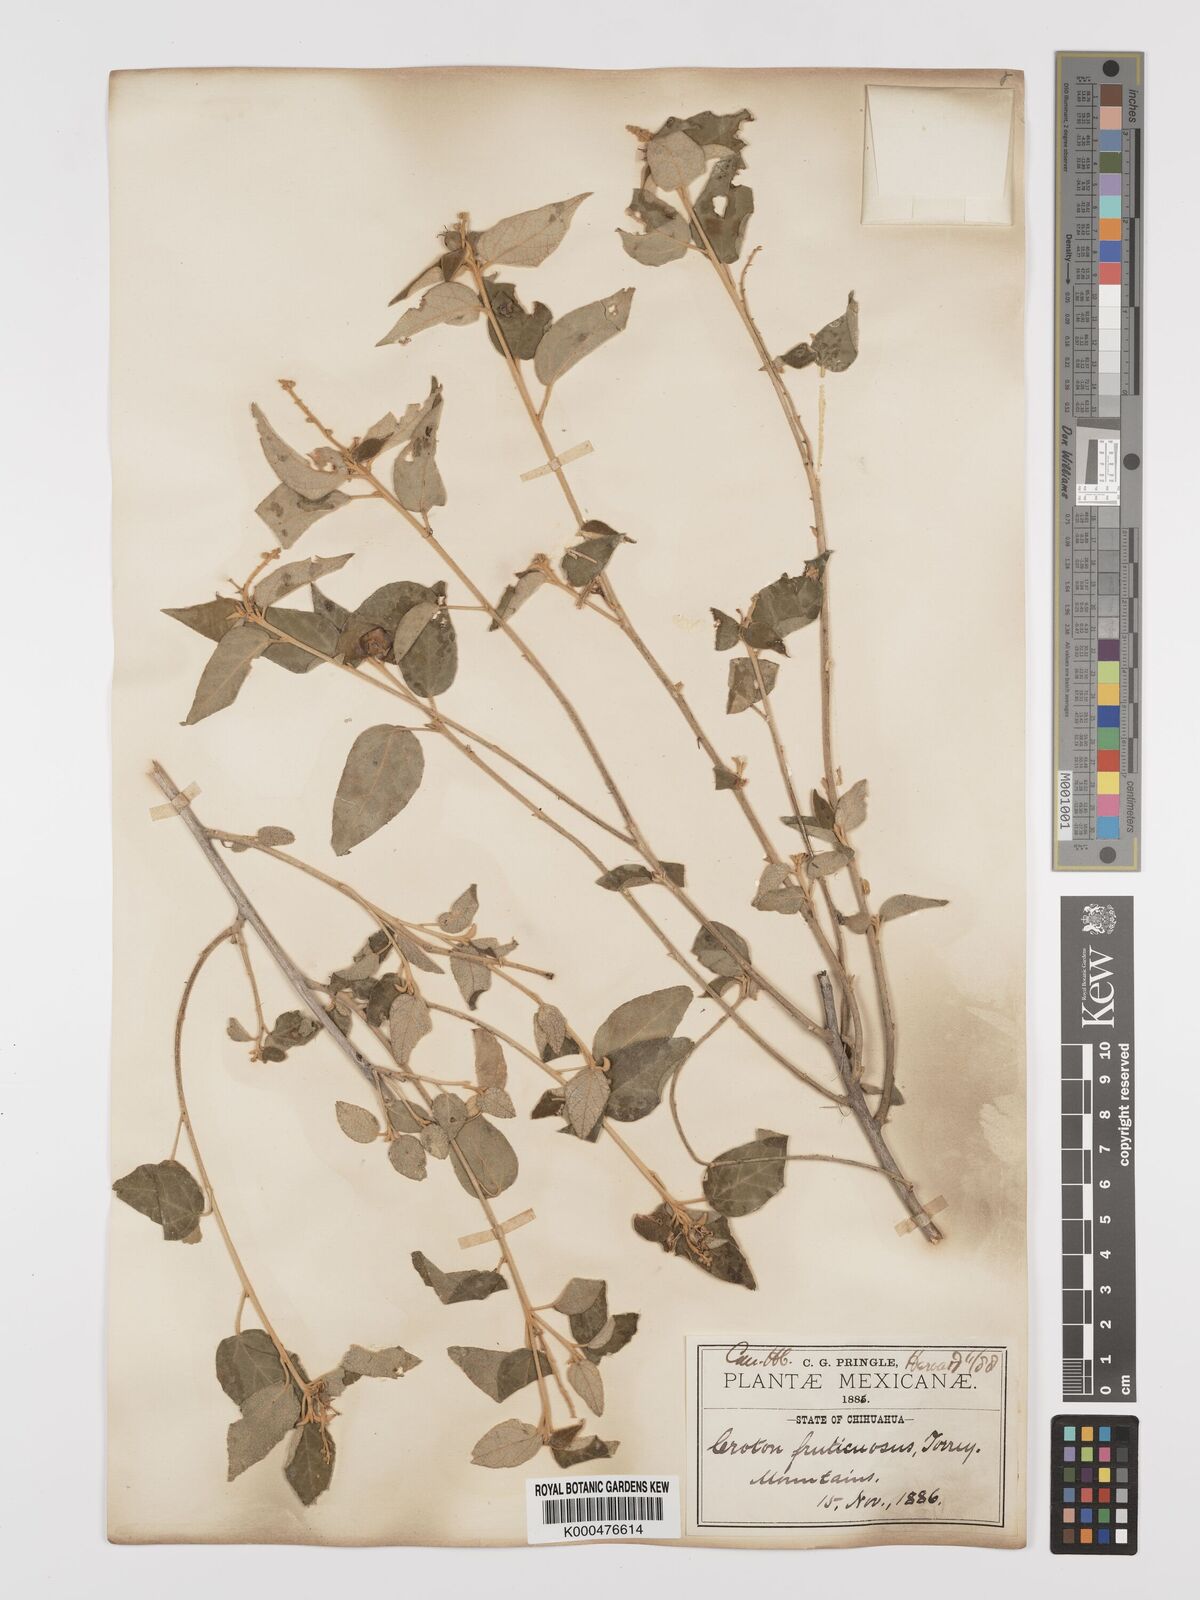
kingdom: Plantae
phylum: Tracheophyta
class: Magnoliopsida
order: Malpighiales
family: Euphorbiaceae
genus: Croton
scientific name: Croton fruticulosus
